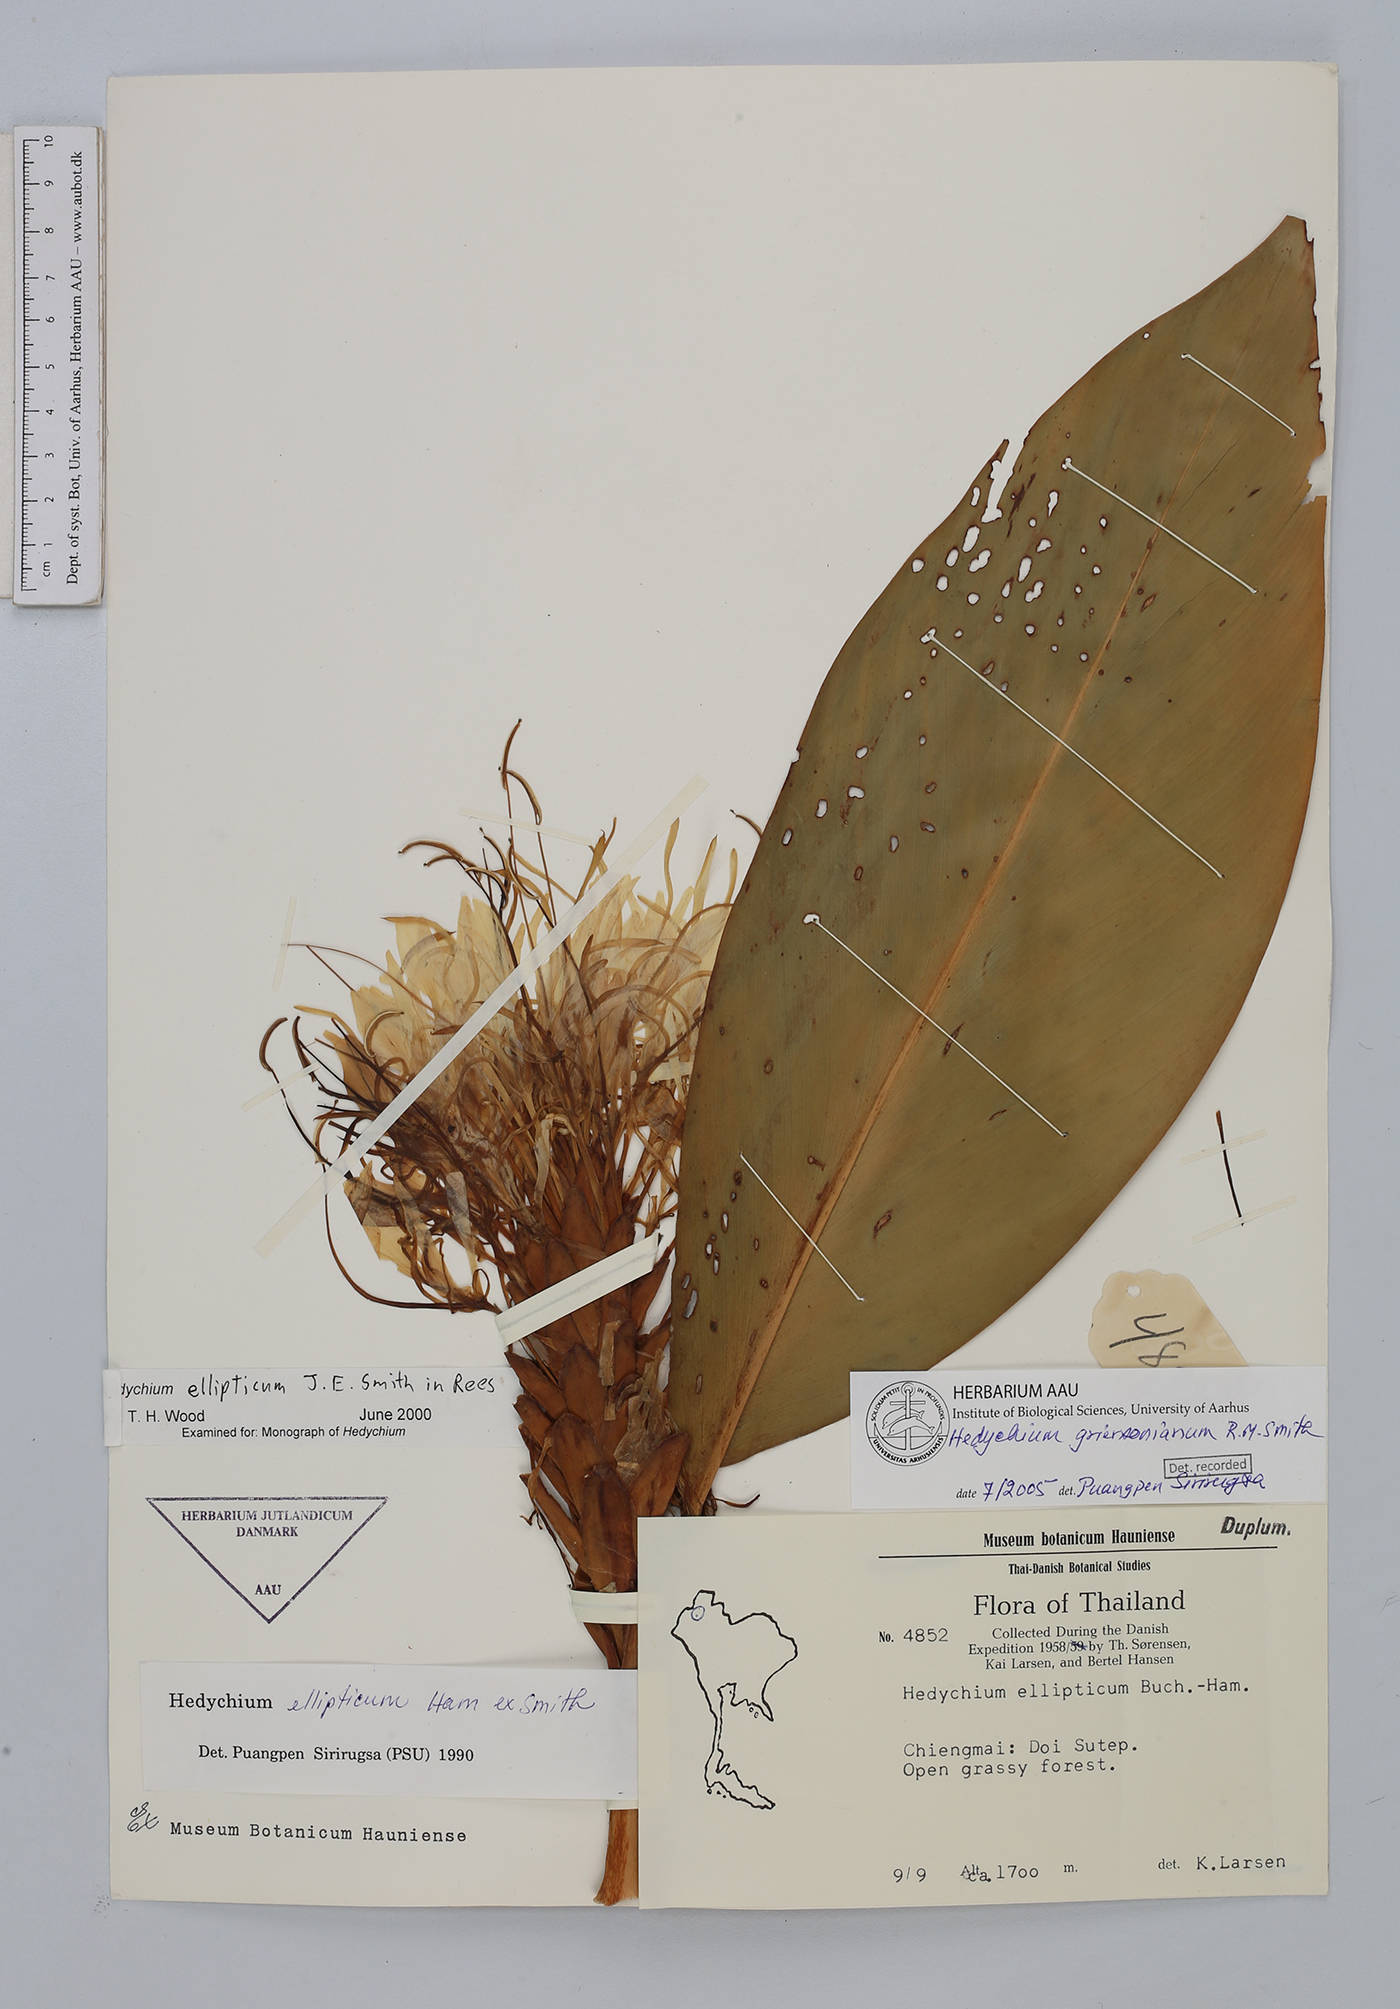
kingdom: Plantae
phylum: Tracheophyta
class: Liliopsida
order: Zingiberales
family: Zingiberaceae
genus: Hedychium
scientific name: Hedychium griersonianum
